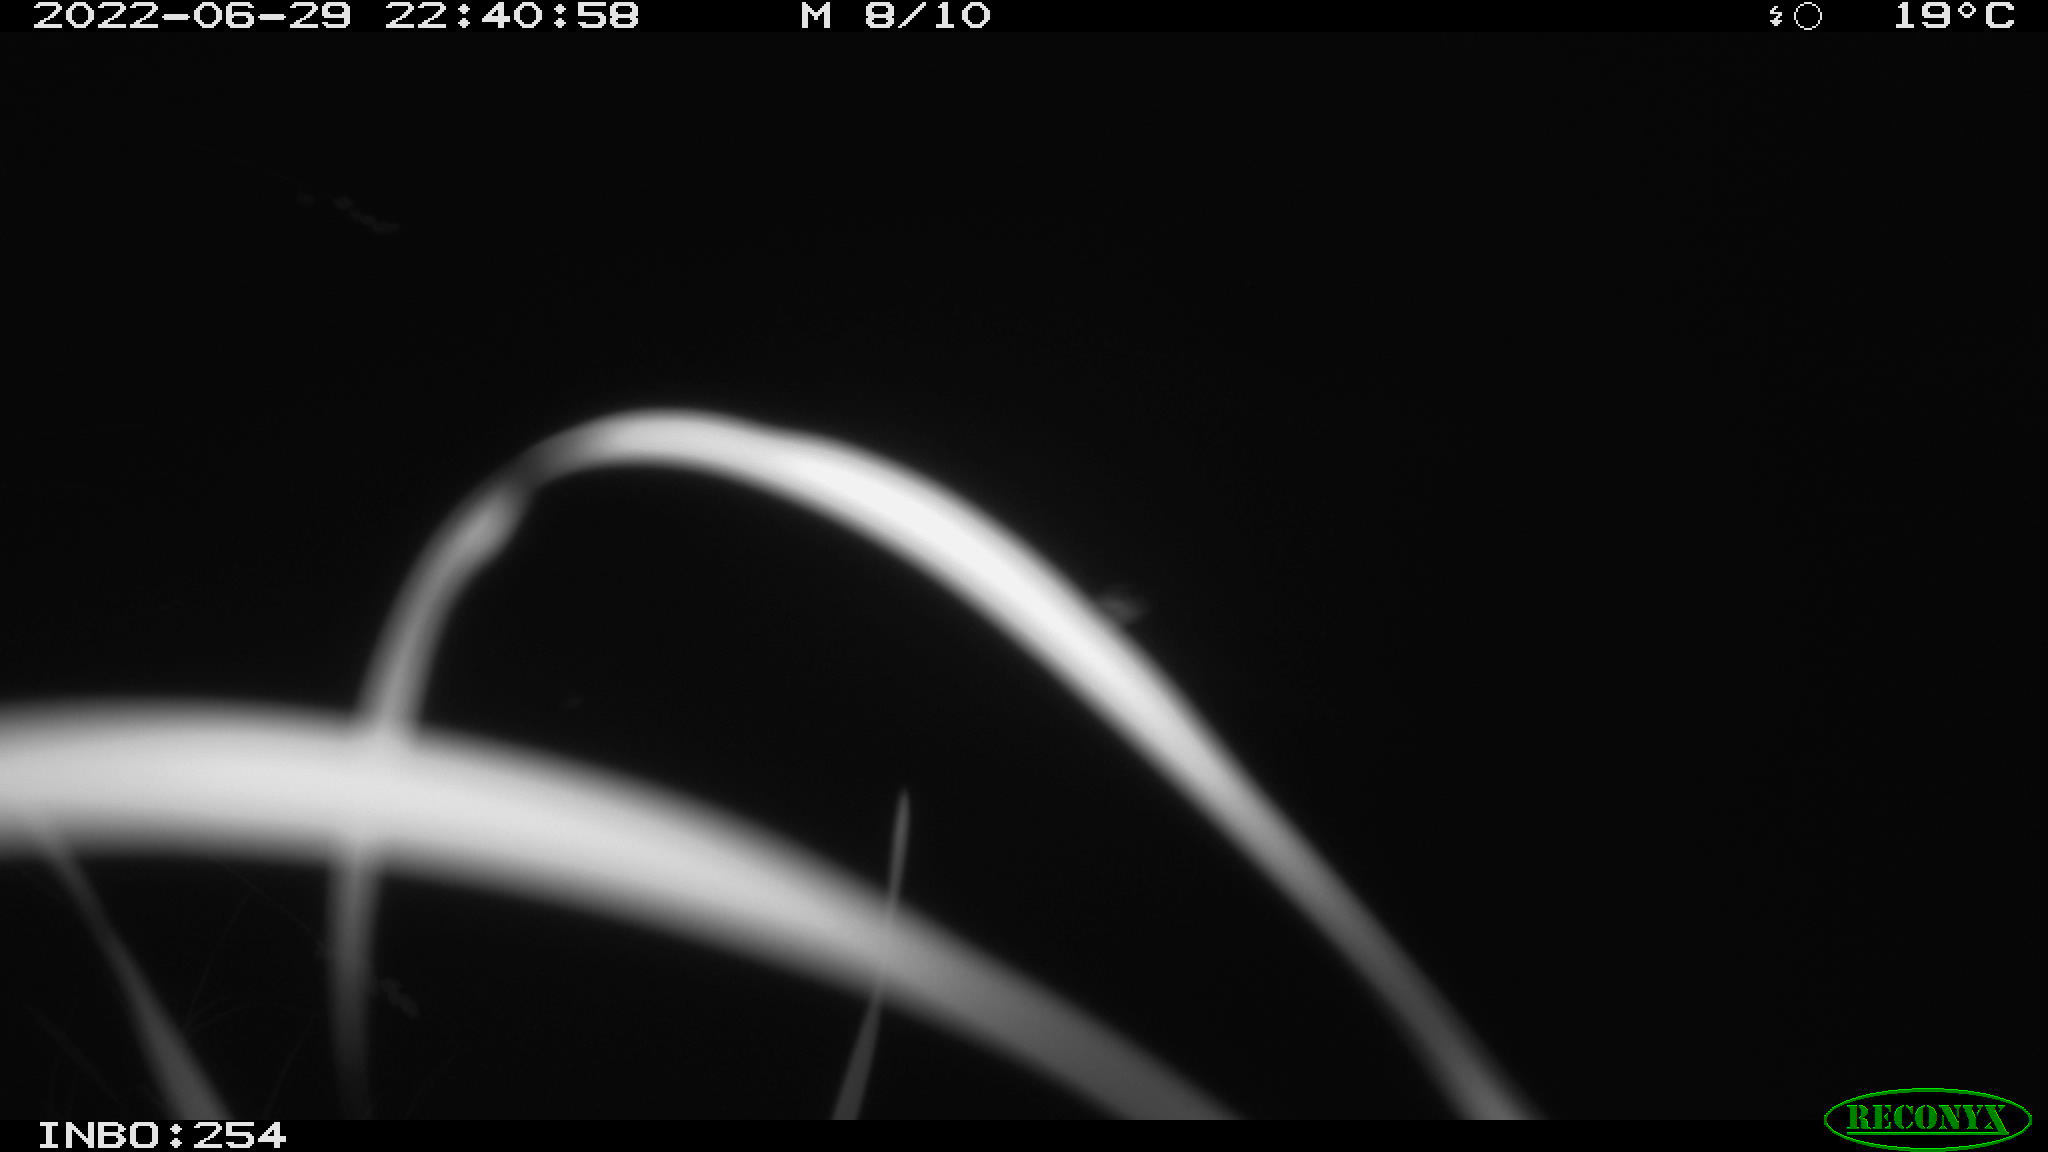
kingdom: Animalia
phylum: Chordata
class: Aves
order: Anseriformes
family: Anatidae
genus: Anas
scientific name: Anas platyrhynchos
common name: Mallard
